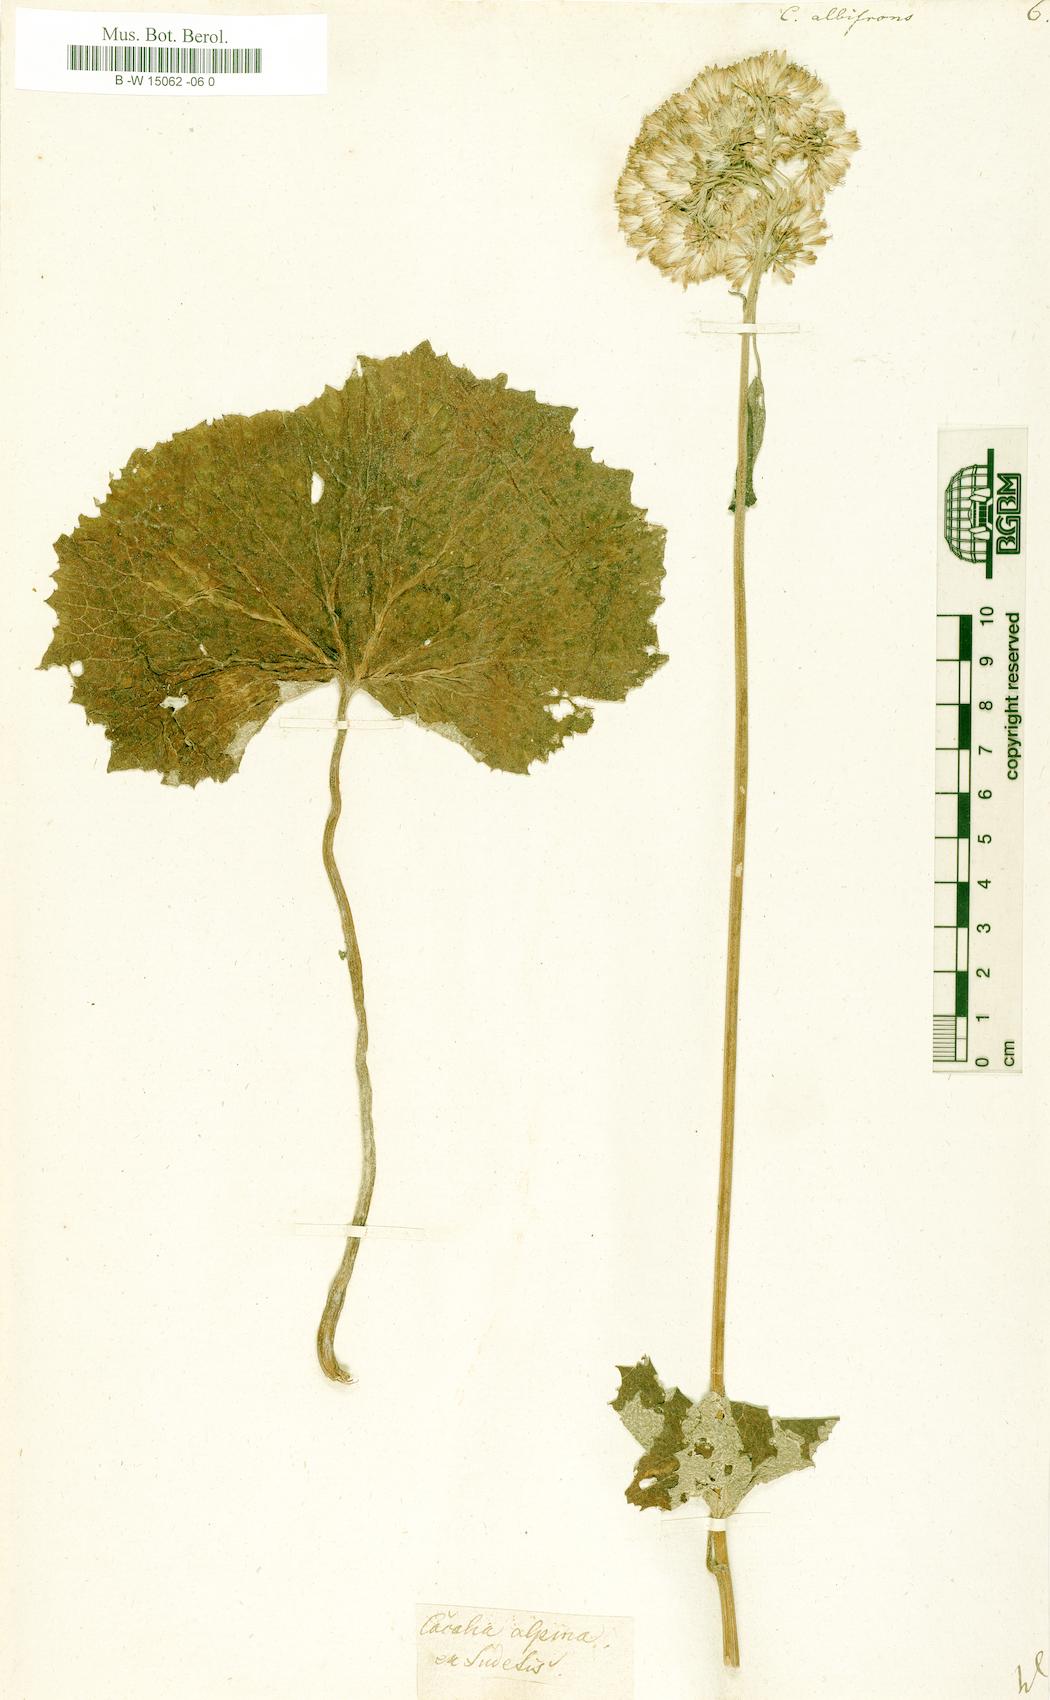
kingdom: Plantae
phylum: Tracheophyta
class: Magnoliopsida
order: Asterales
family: Asteraceae
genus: Adenostyles
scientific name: Adenostyles alliariae
